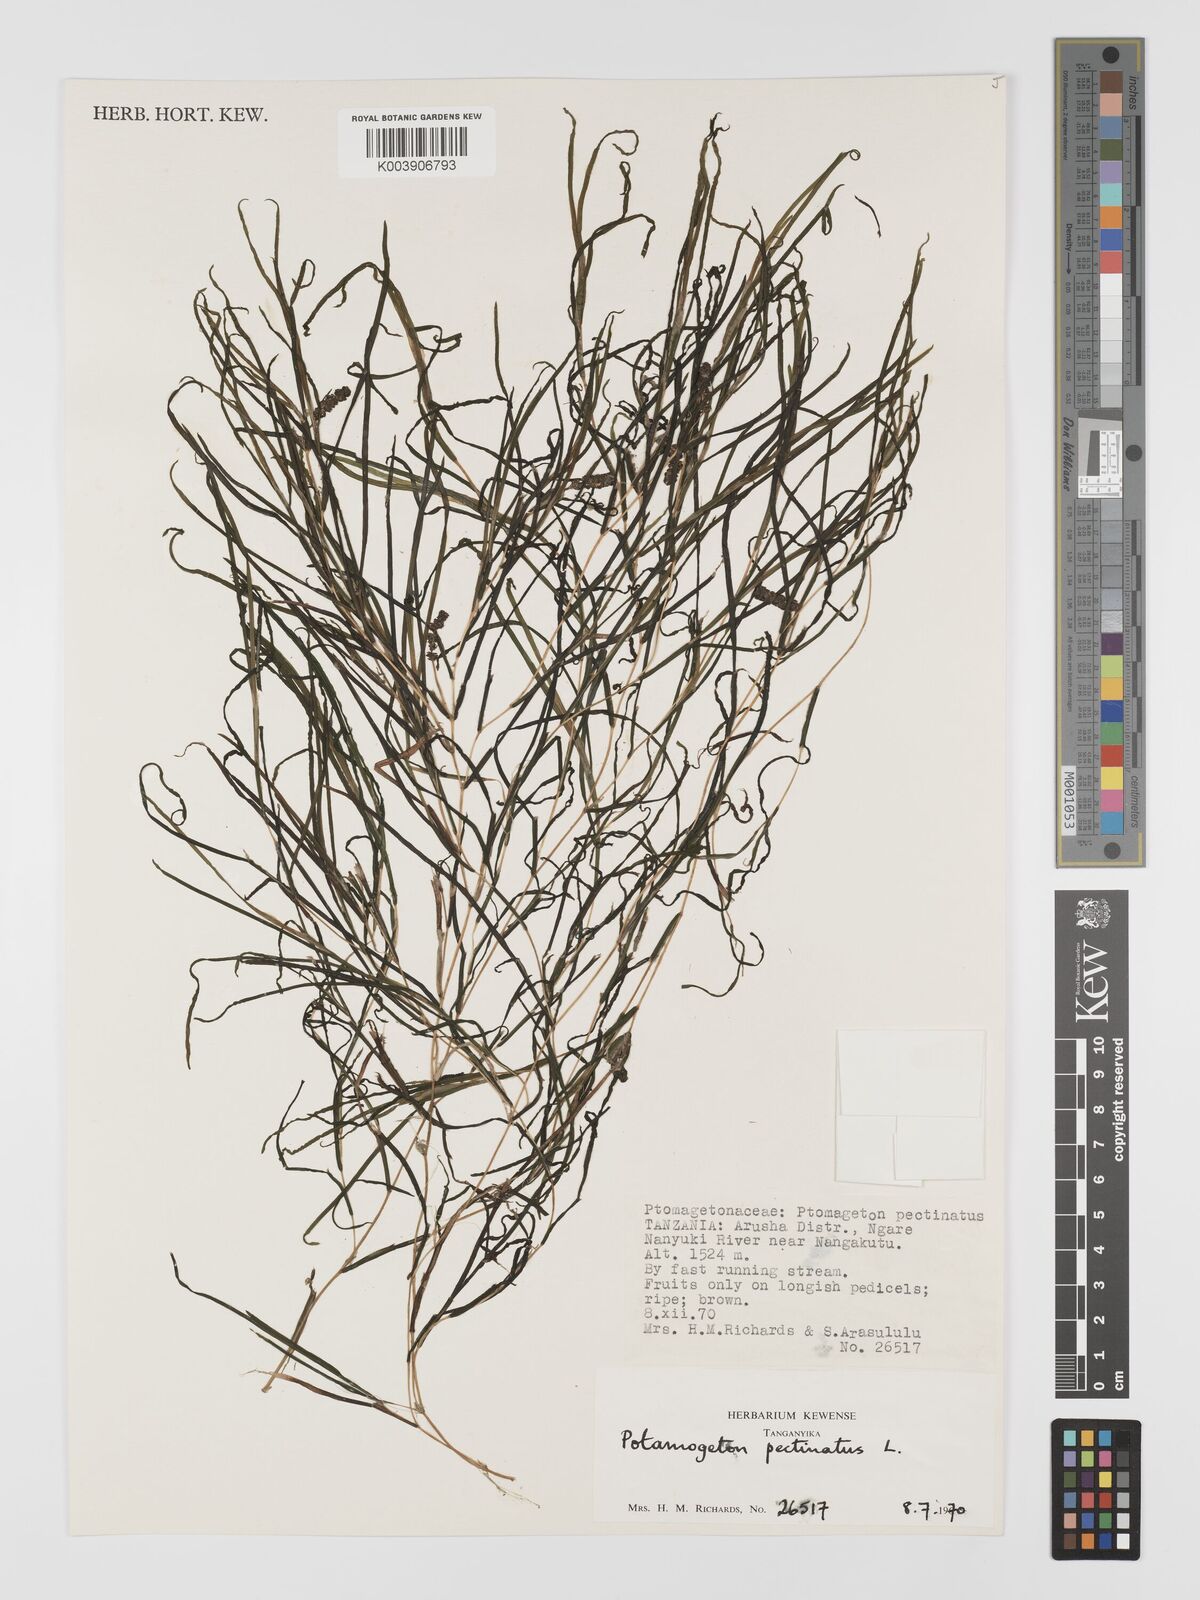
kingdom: Plantae
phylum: Tracheophyta
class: Liliopsida
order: Alismatales
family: Potamogetonaceae
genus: Stuckenia
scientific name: Stuckenia pectinata
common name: Sago pondweed
